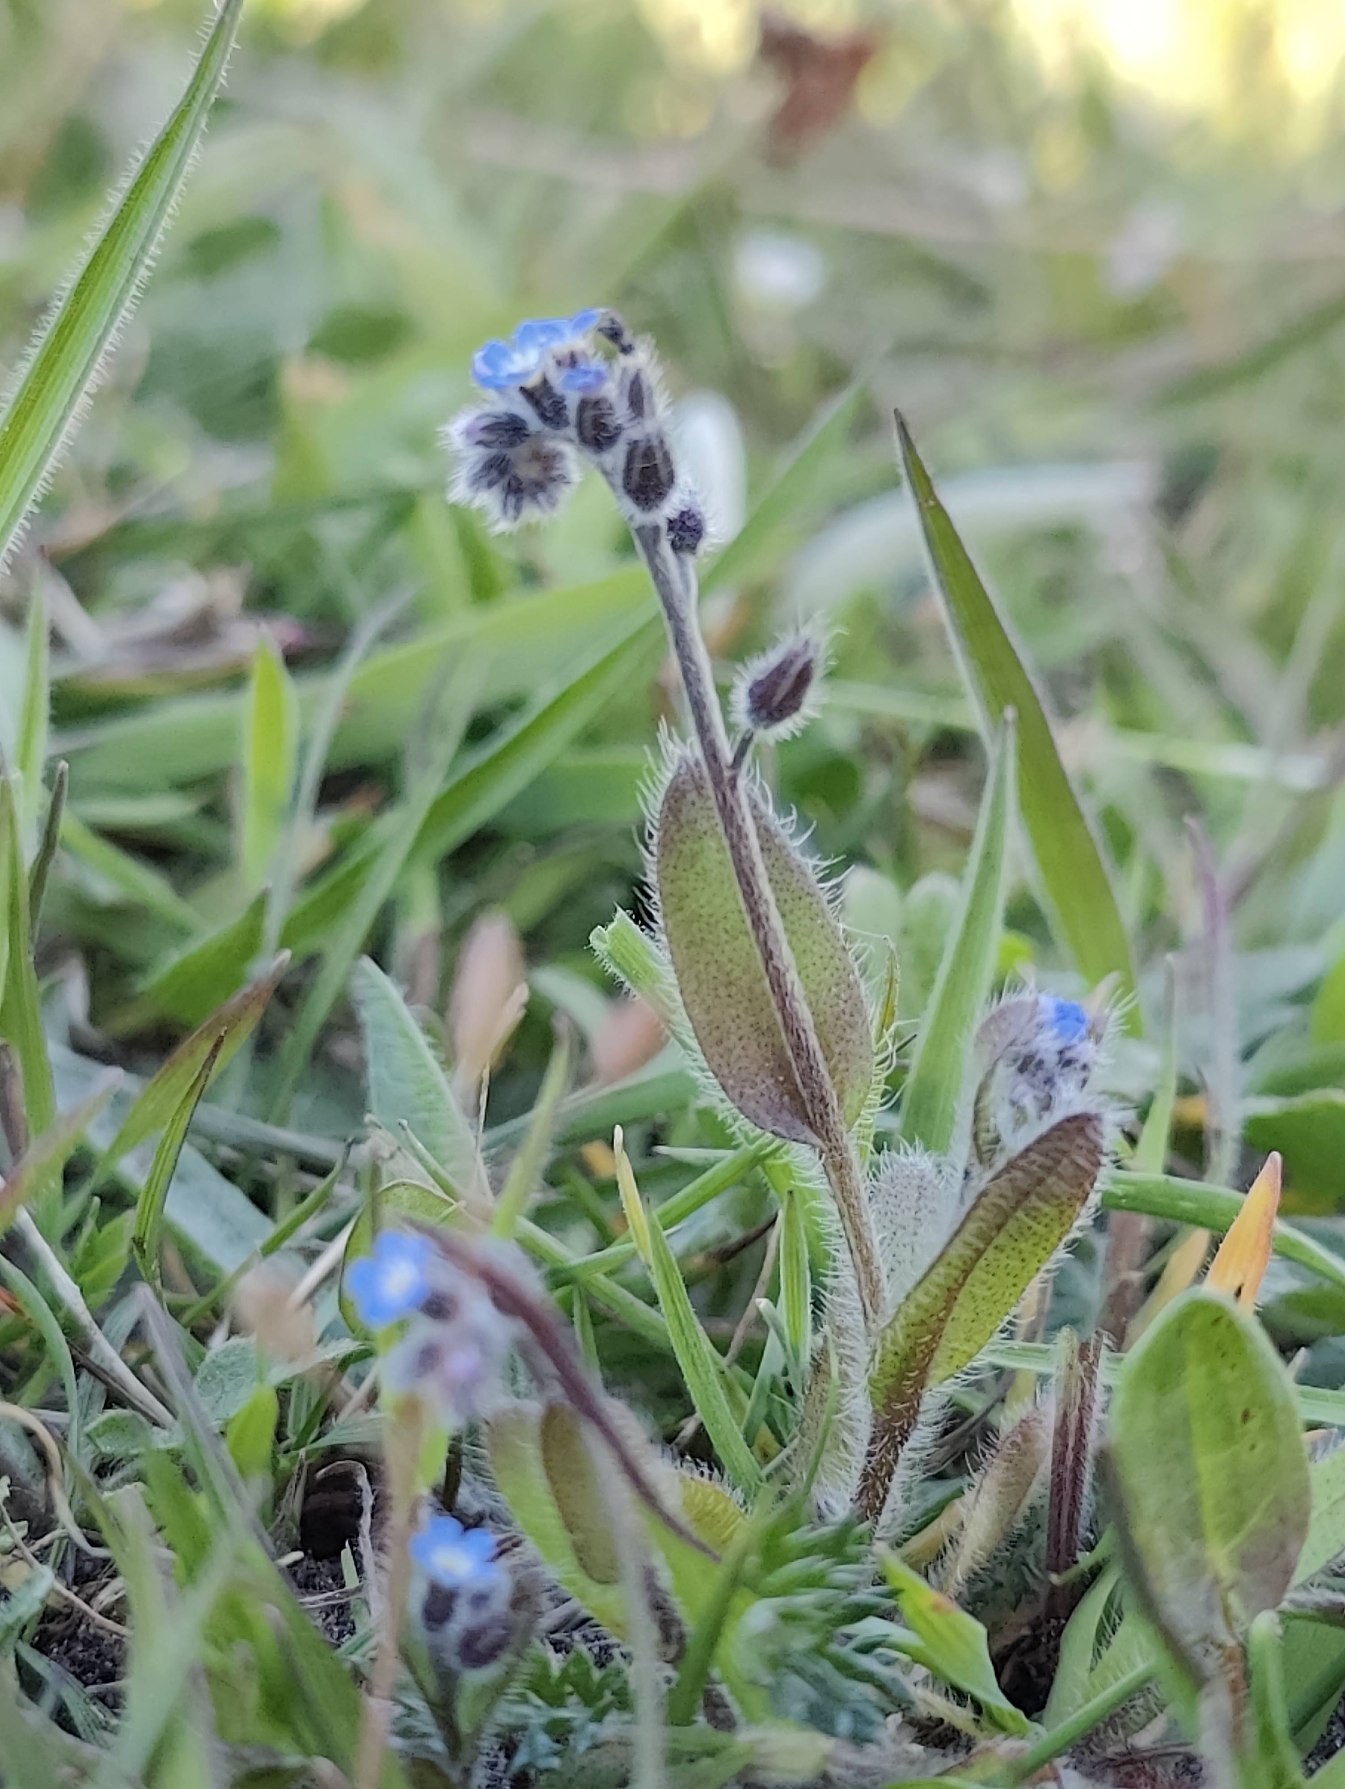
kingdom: Plantae
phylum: Tracheophyta
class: Magnoliopsida
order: Boraginales
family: Boraginaceae
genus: Myosotis
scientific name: Myosotis ramosissima
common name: Bakke-forglemmigej
